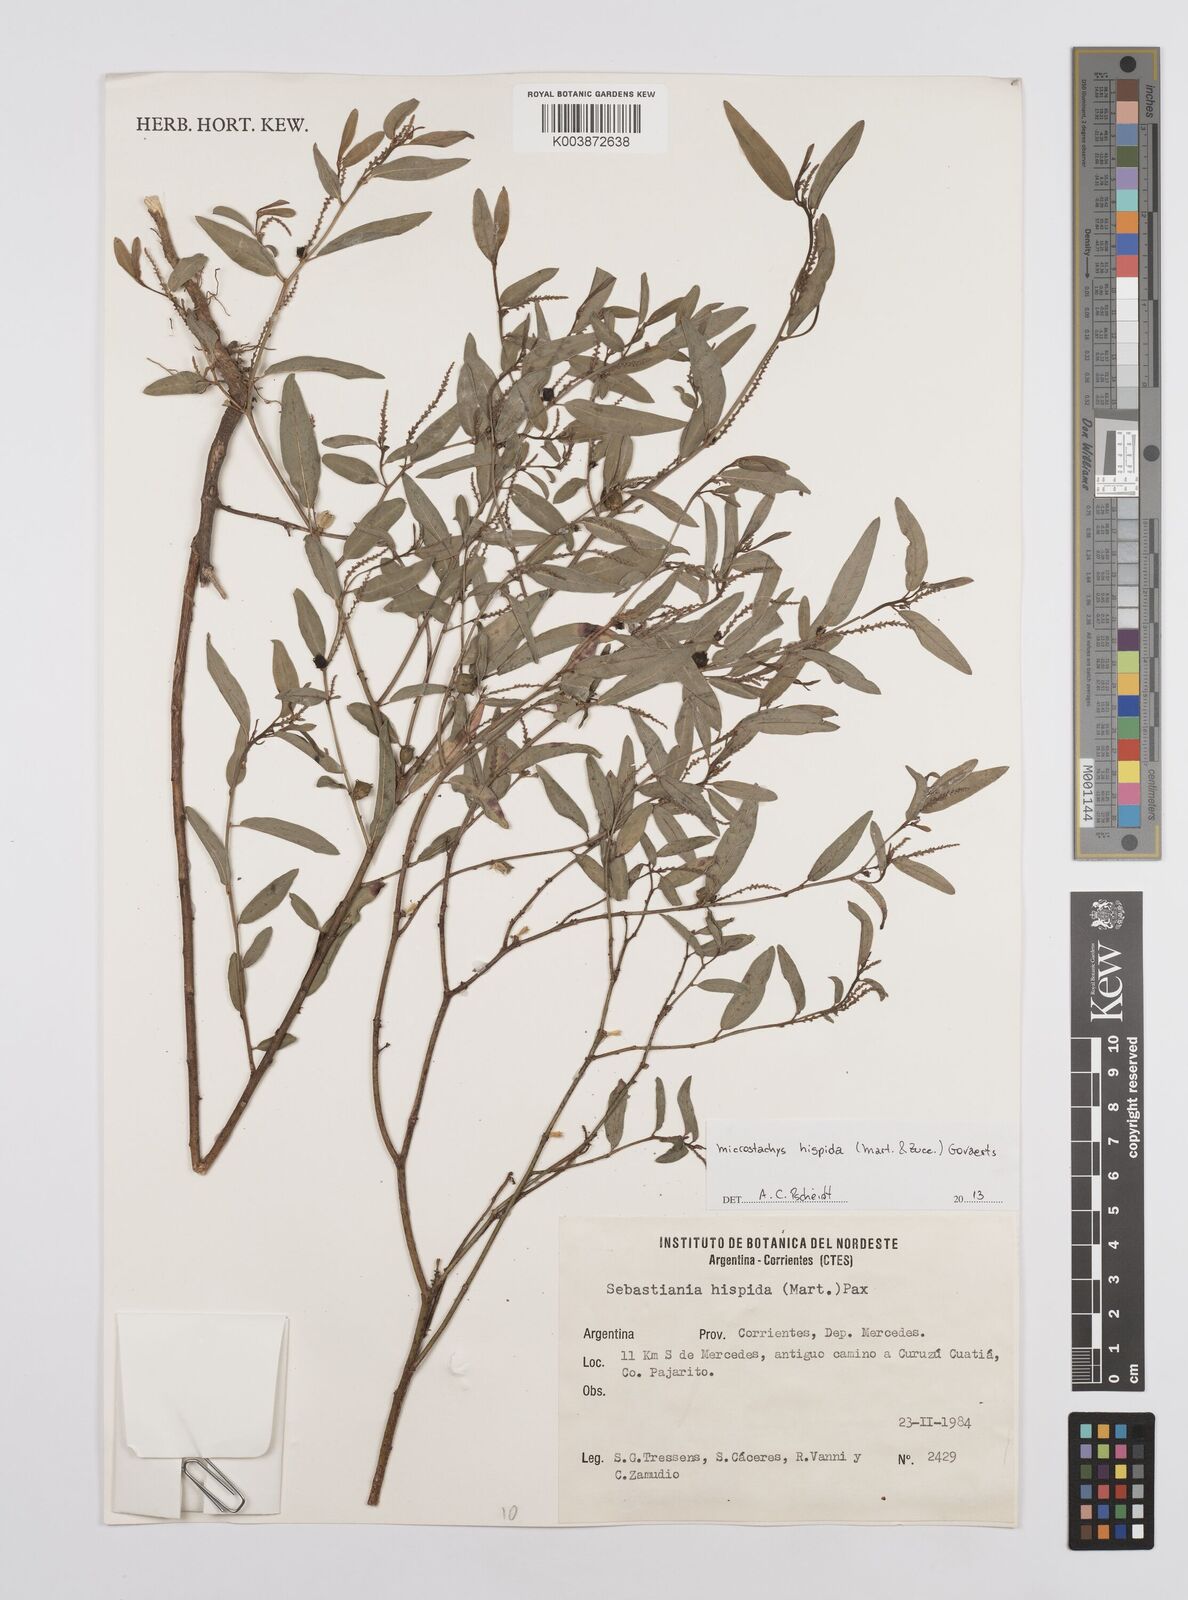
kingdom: Plantae
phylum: Tracheophyta
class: Magnoliopsida
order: Malpighiales
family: Euphorbiaceae
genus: Microstachys
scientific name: Microstachys hispida
